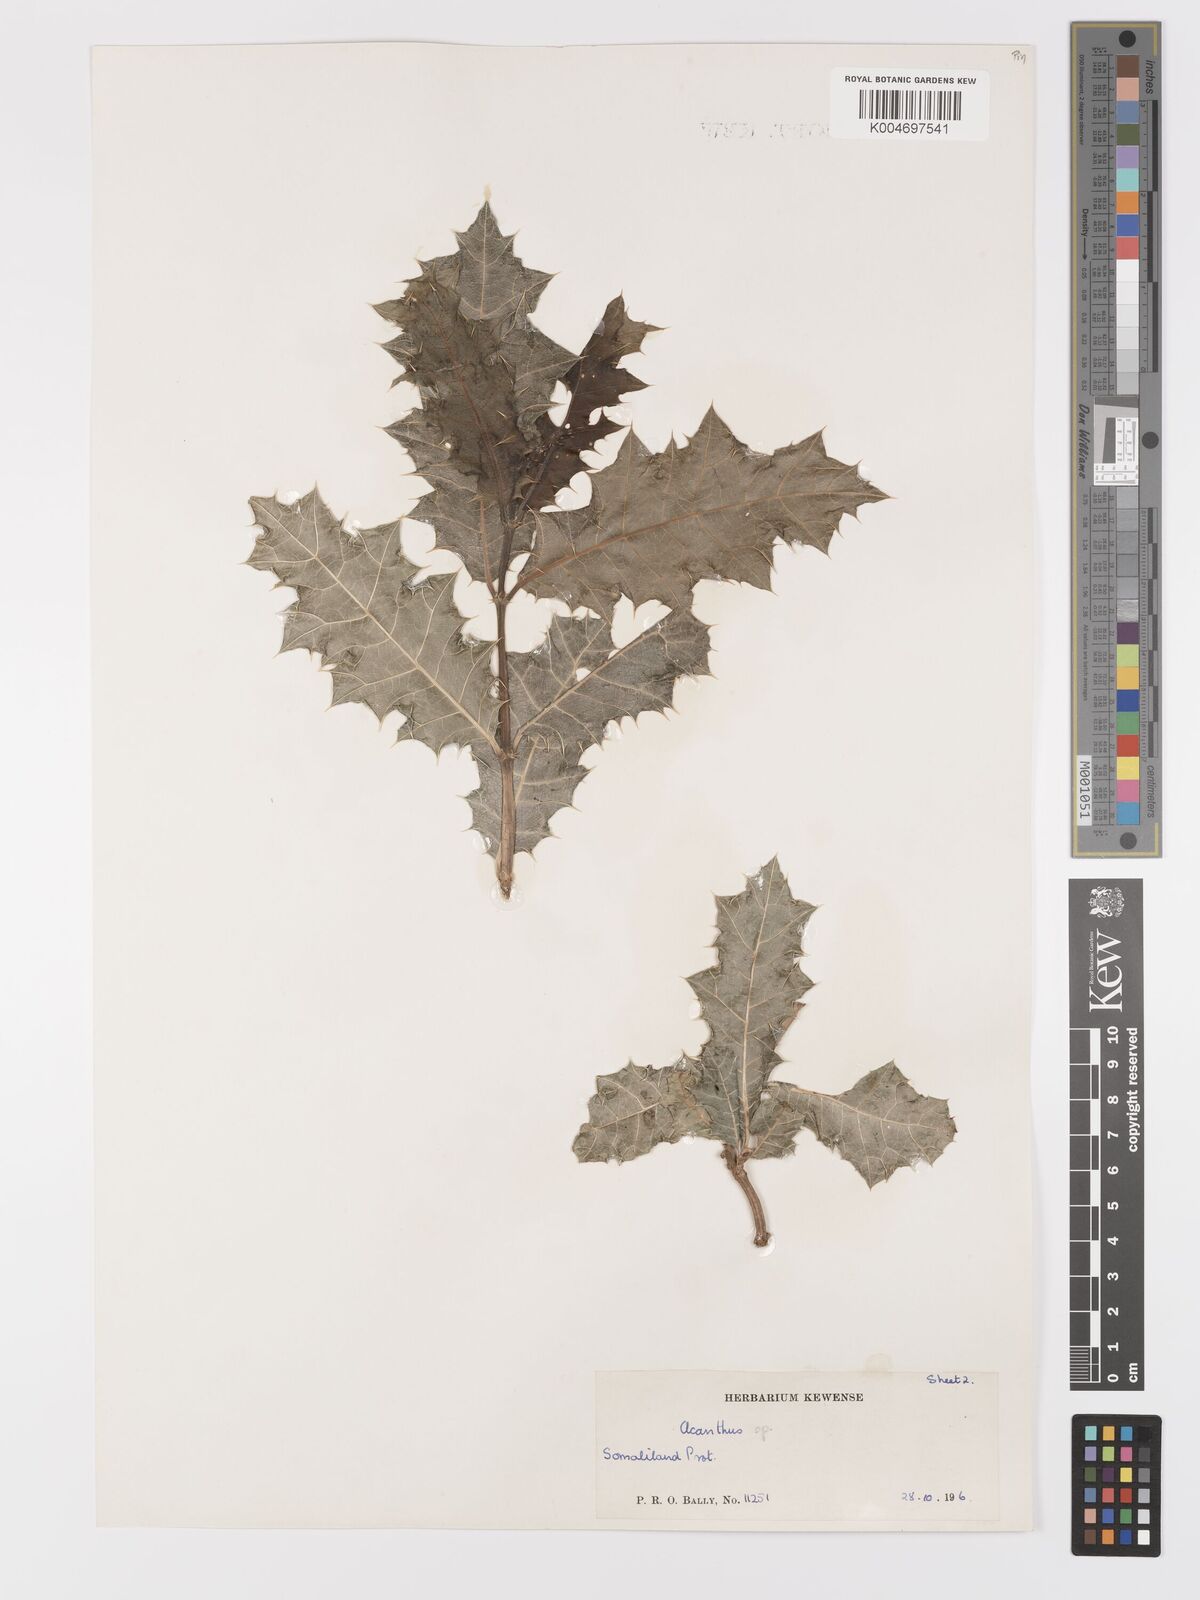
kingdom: Plantae
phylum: Tracheophyta
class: Magnoliopsida
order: Lamiales
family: Acanthaceae
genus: Acanthus
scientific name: Acanthus gaed
